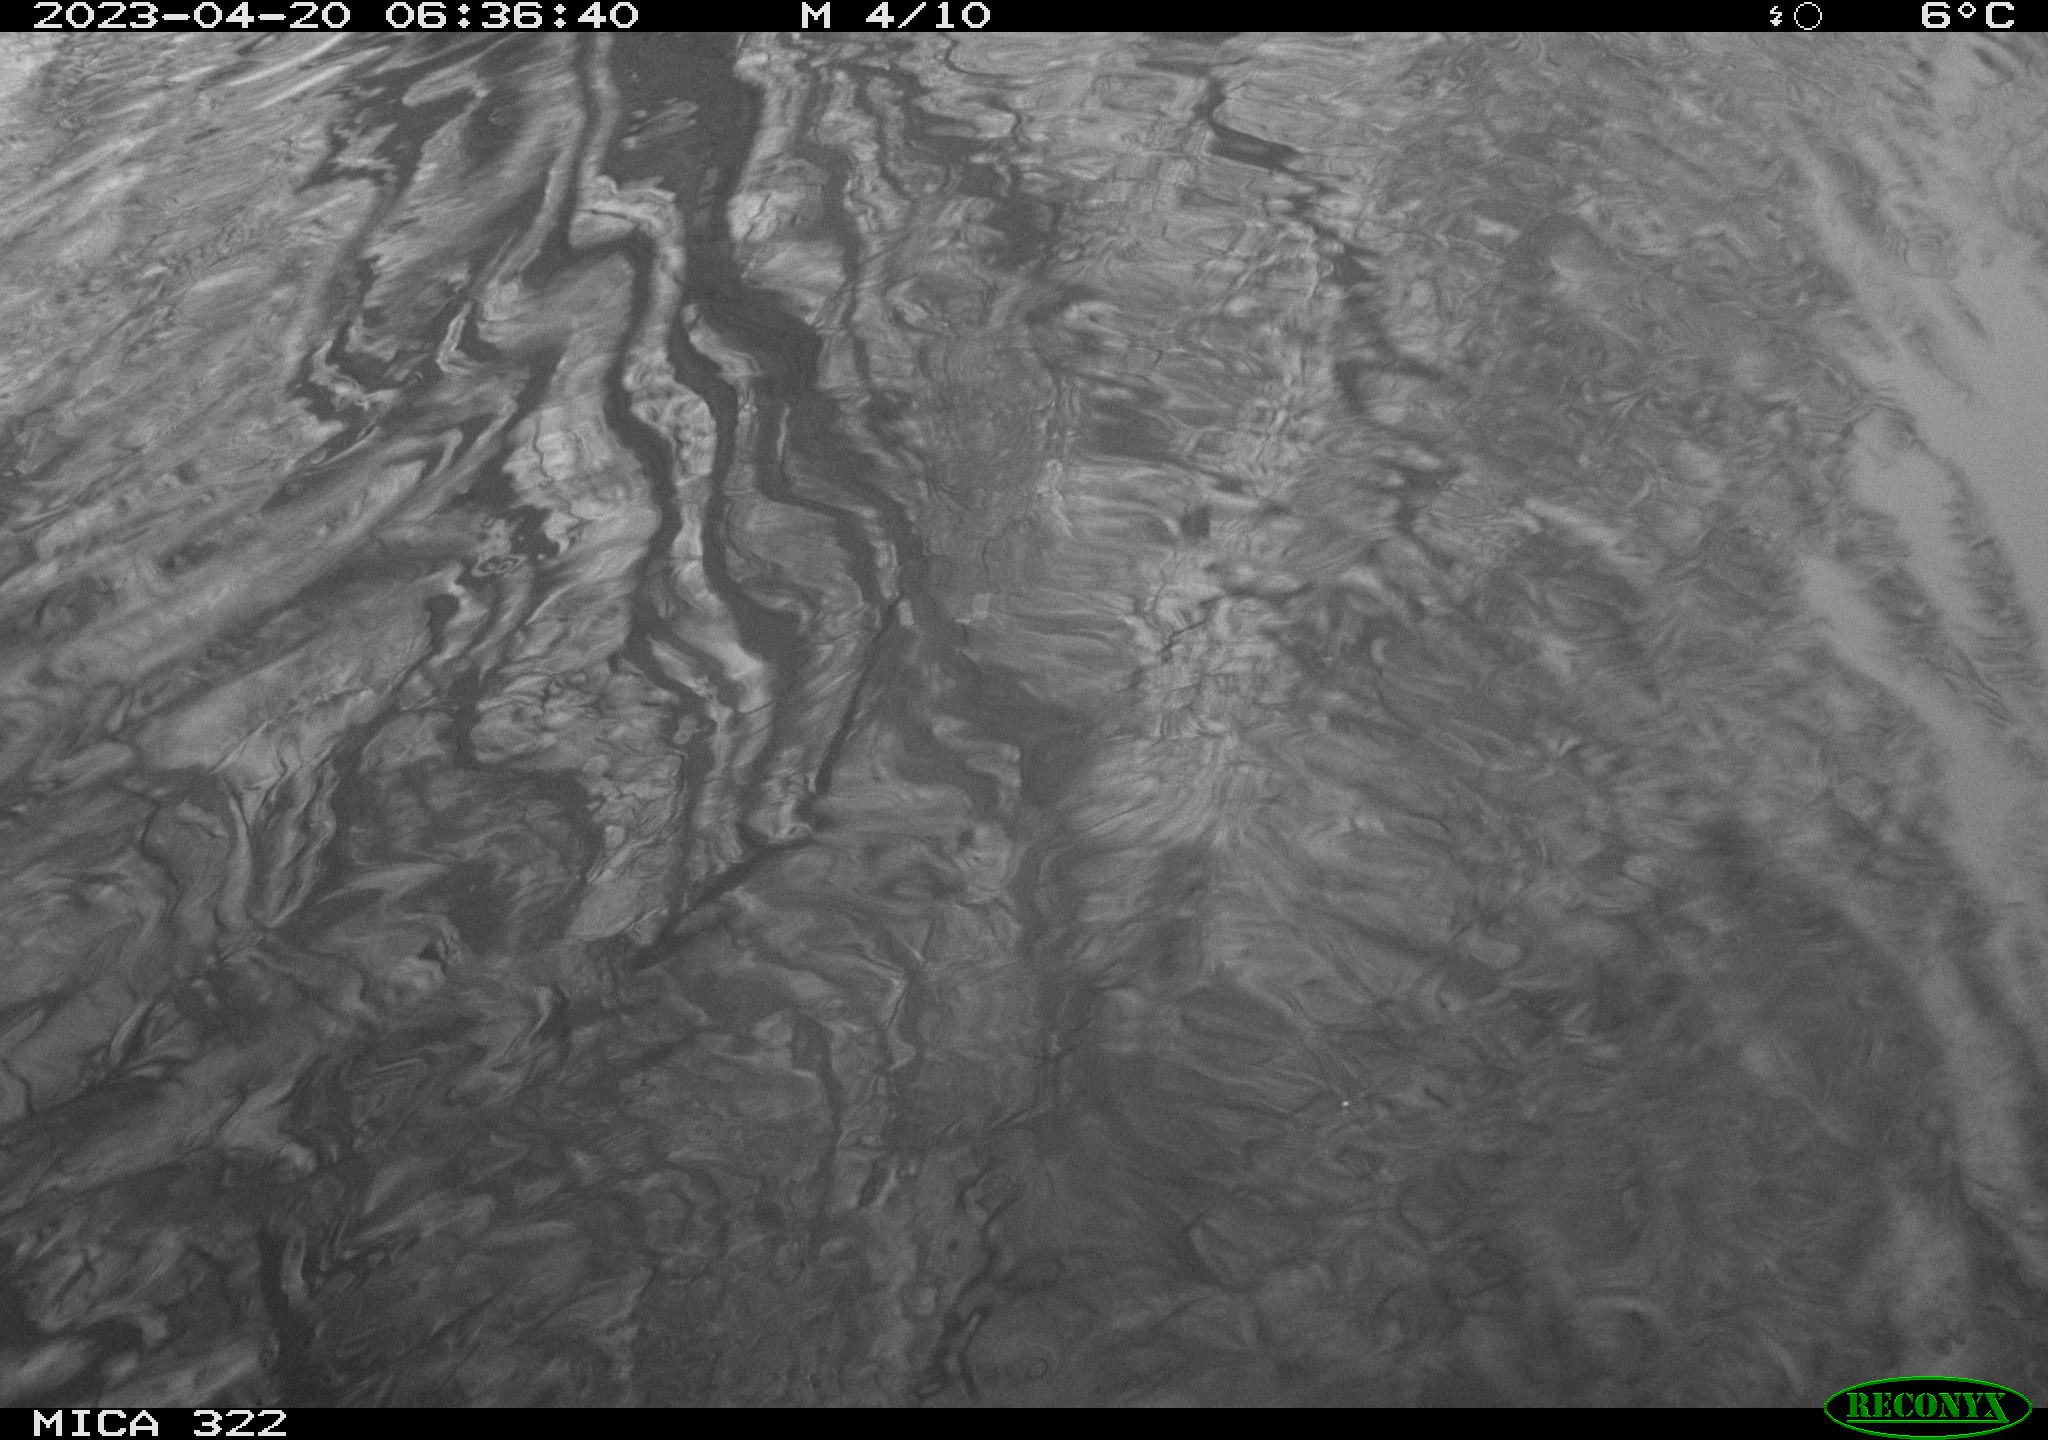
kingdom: Animalia
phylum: Chordata
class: Aves
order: Anseriformes
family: Anatidae
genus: Anas
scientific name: Anas
